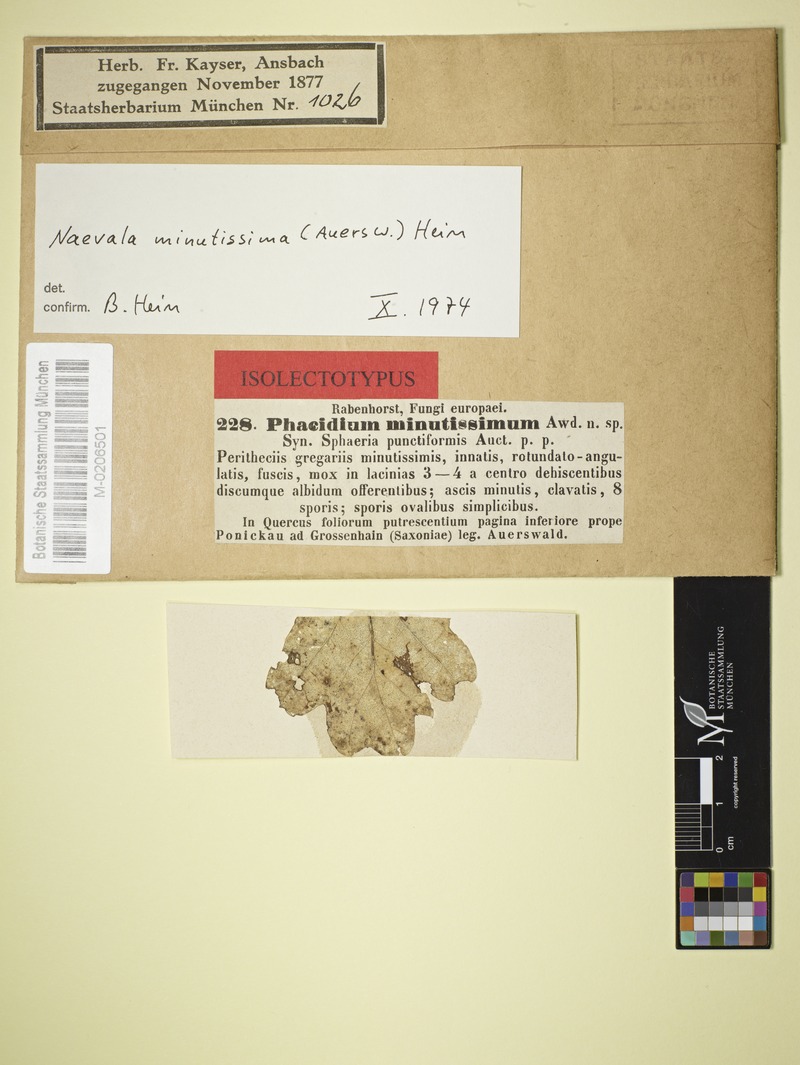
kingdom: Fungi
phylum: Ascomycota
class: Leotiomycetes
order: Helotiales
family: Discinellaceae
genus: Naevala
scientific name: Naevala perexigua
